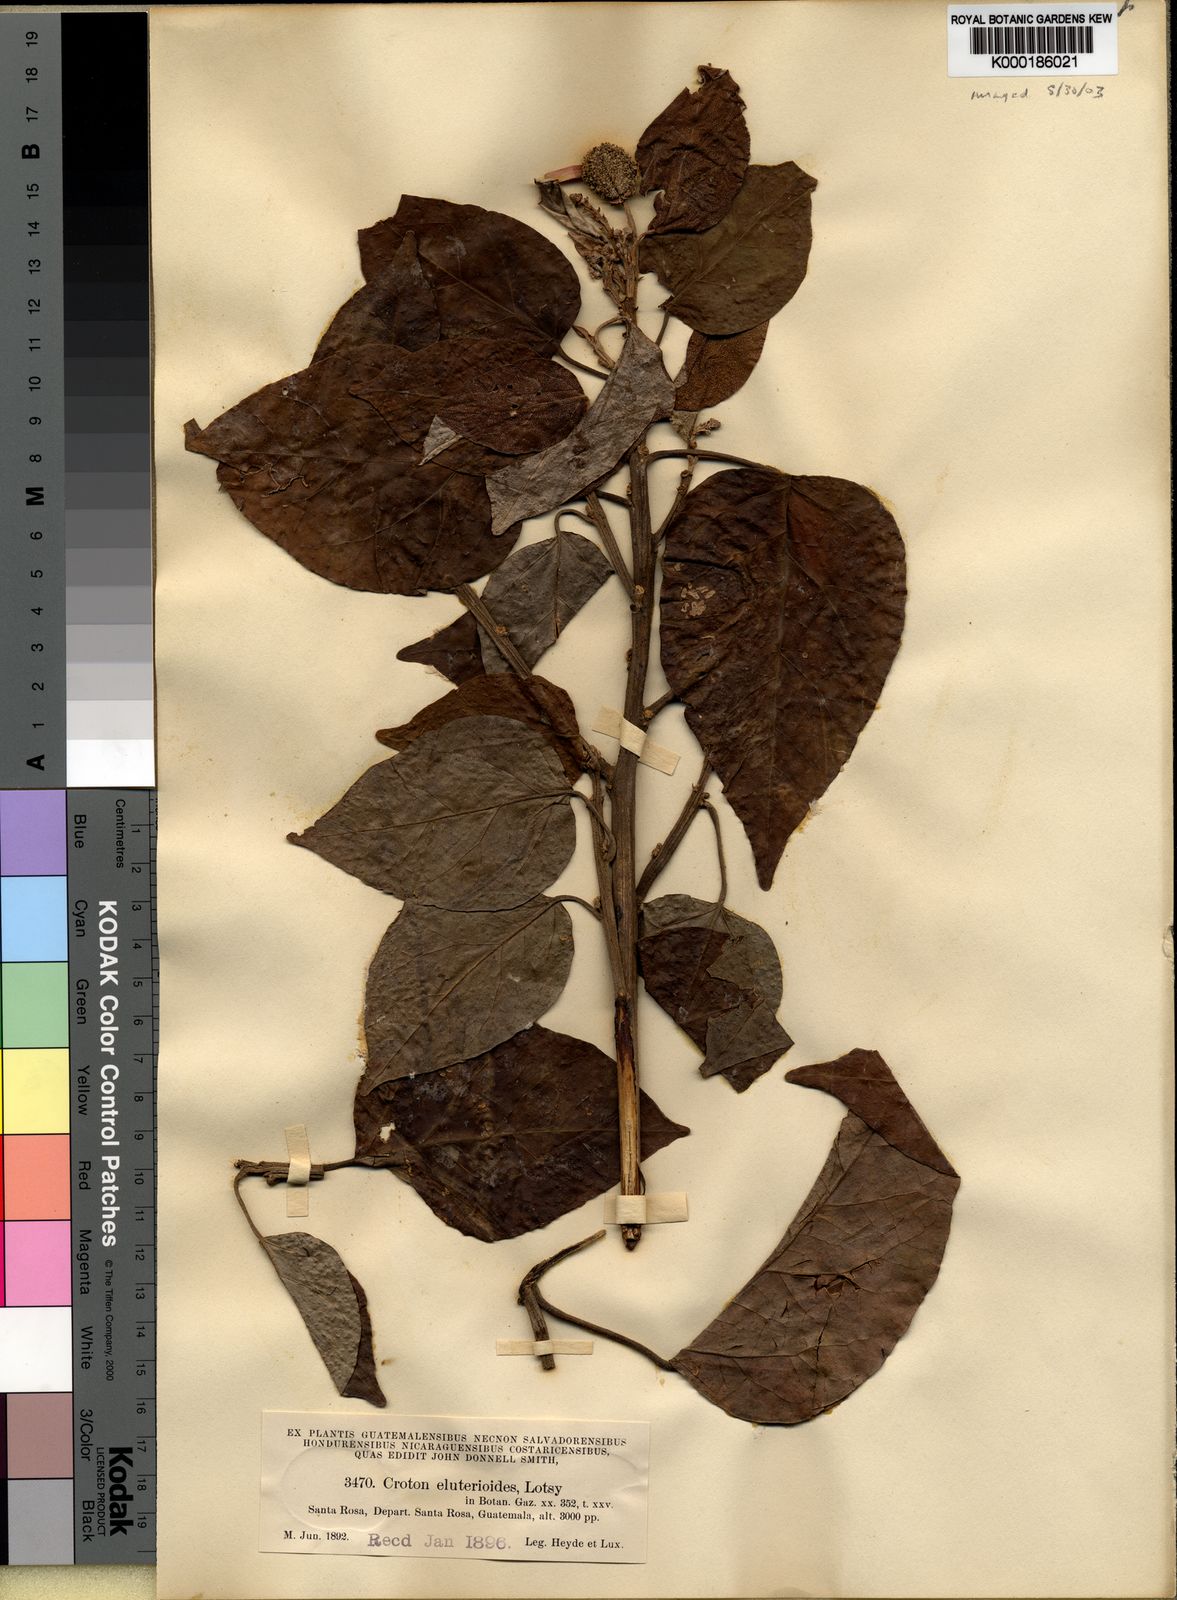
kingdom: Plantae
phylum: Tracheophyta
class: Magnoliopsida
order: Malpighiales
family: Euphorbiaceae
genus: Croton
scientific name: Croton guatemalensis
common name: Copalchi
